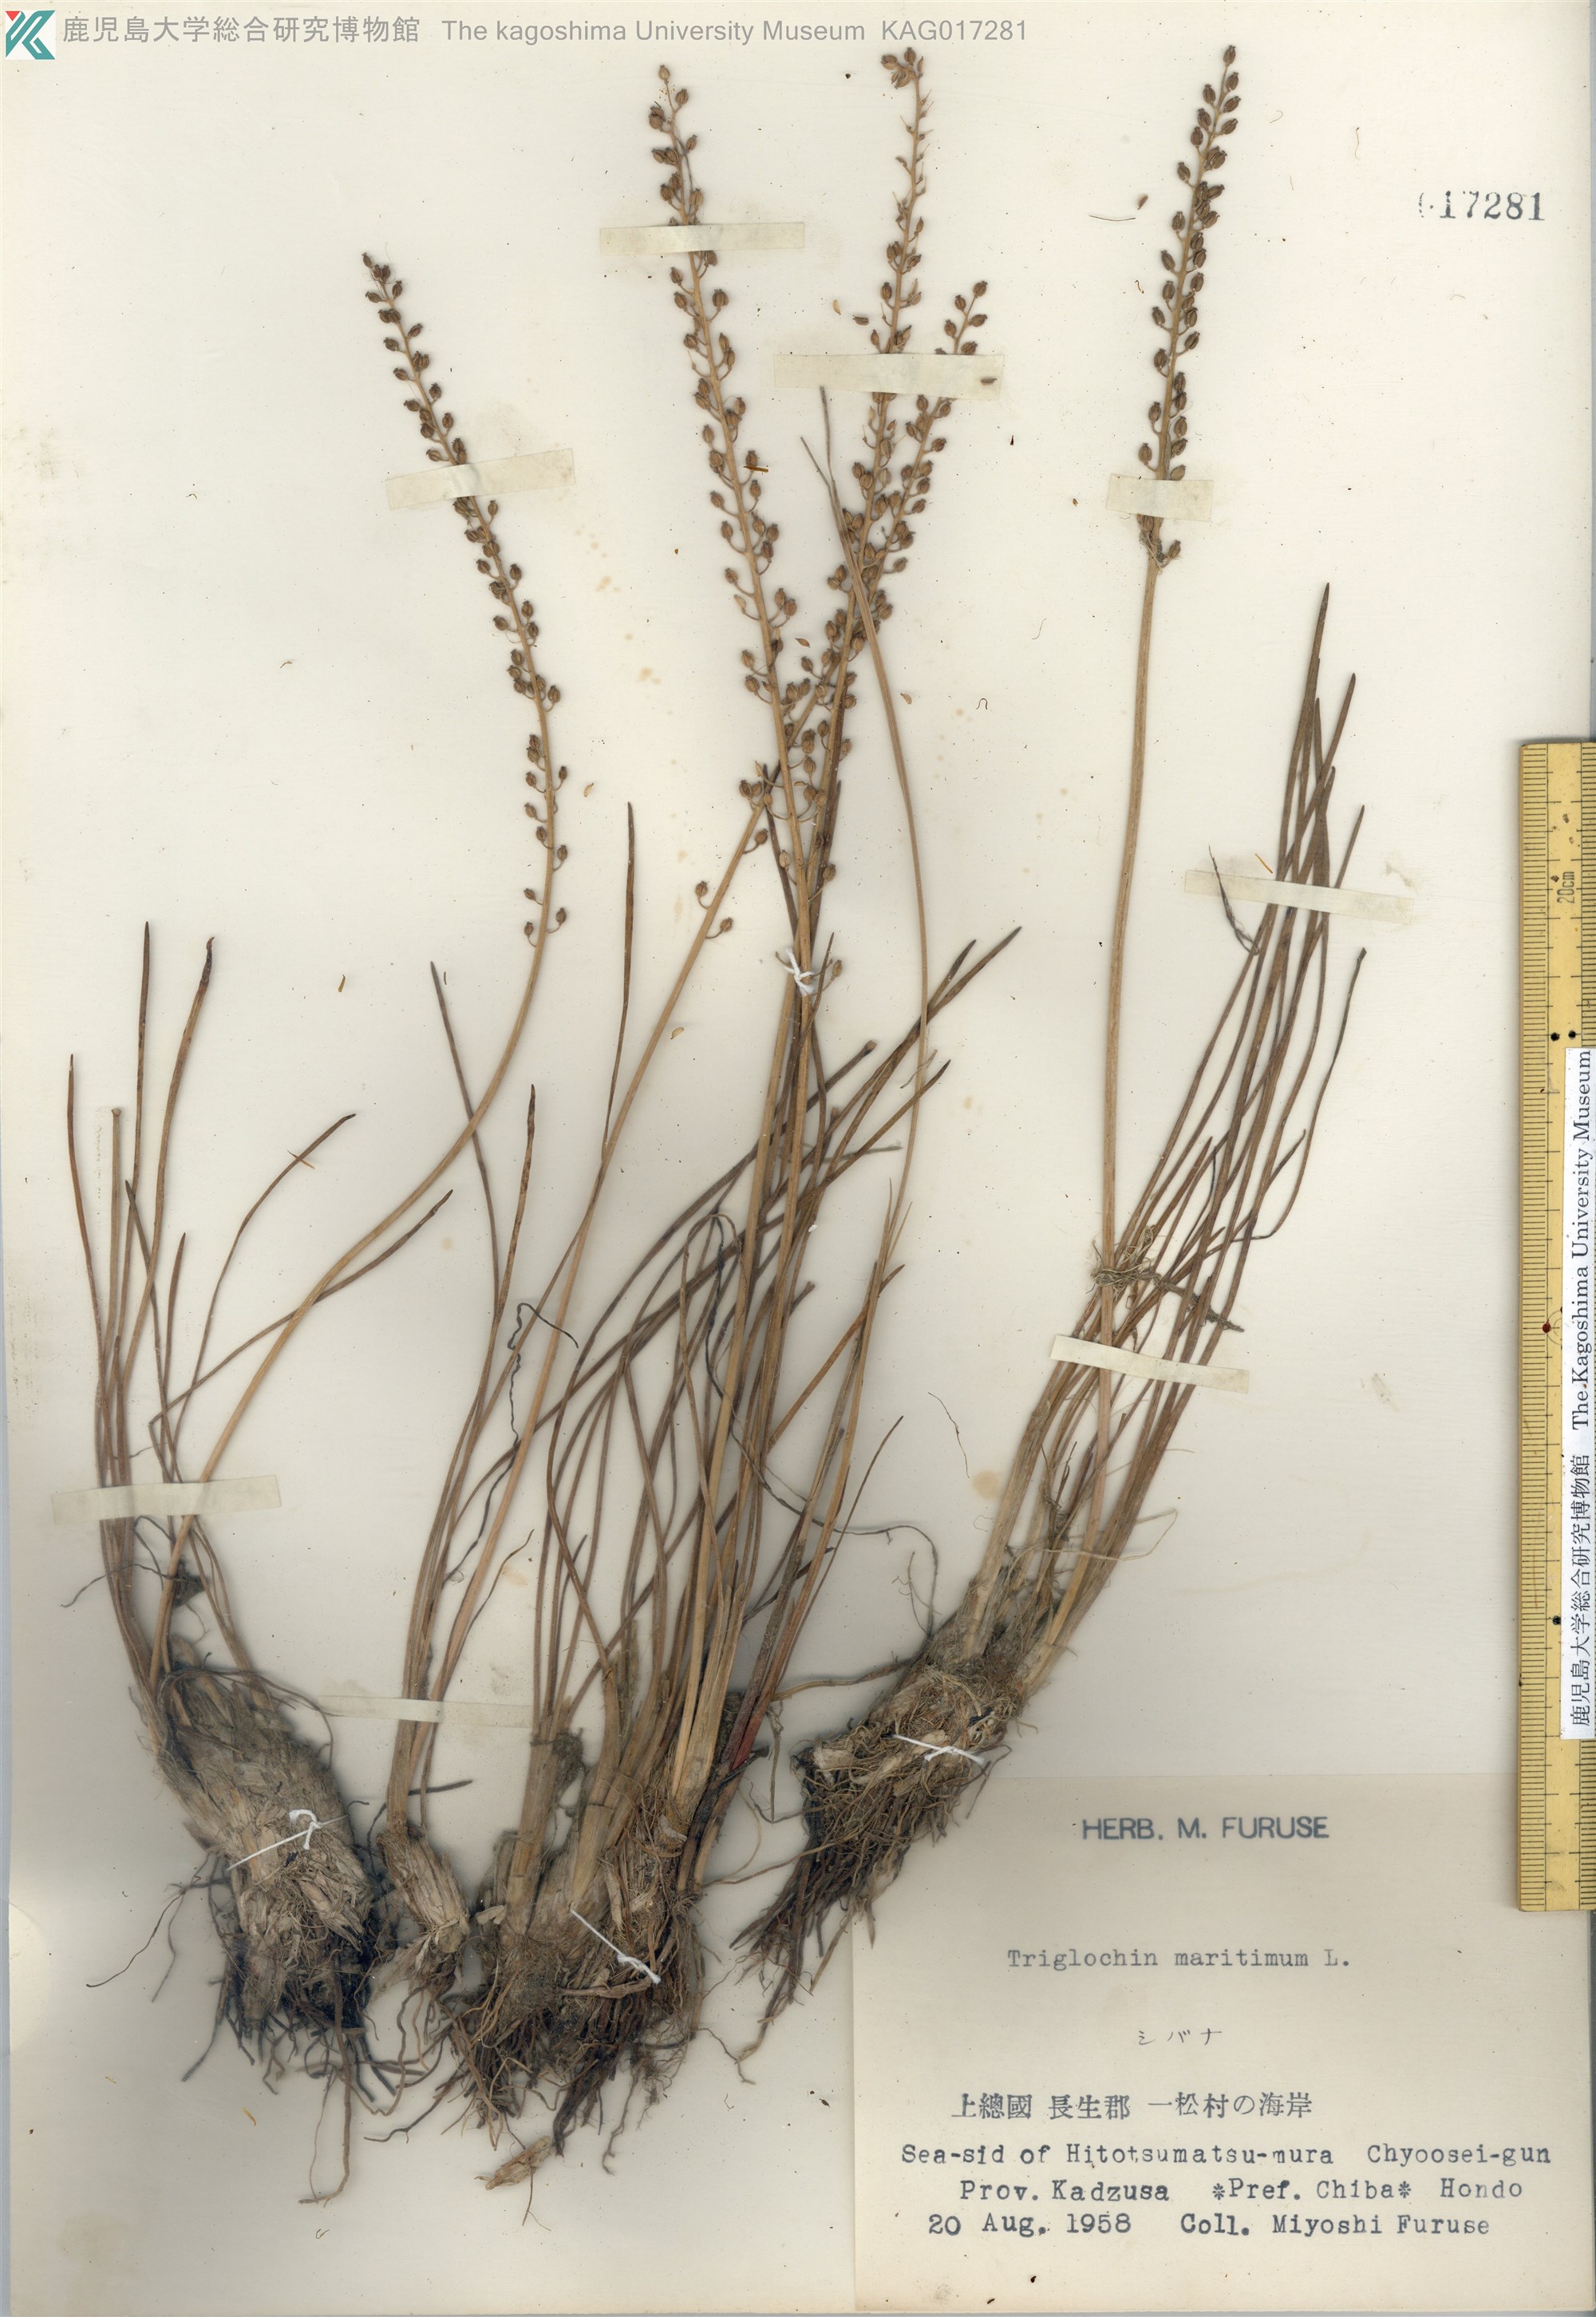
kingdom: Plantae
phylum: Tracheophyta
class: Liliopsida
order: Alismatales
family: Juncaginaceae
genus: Triglochin
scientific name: Triglochin maritima
